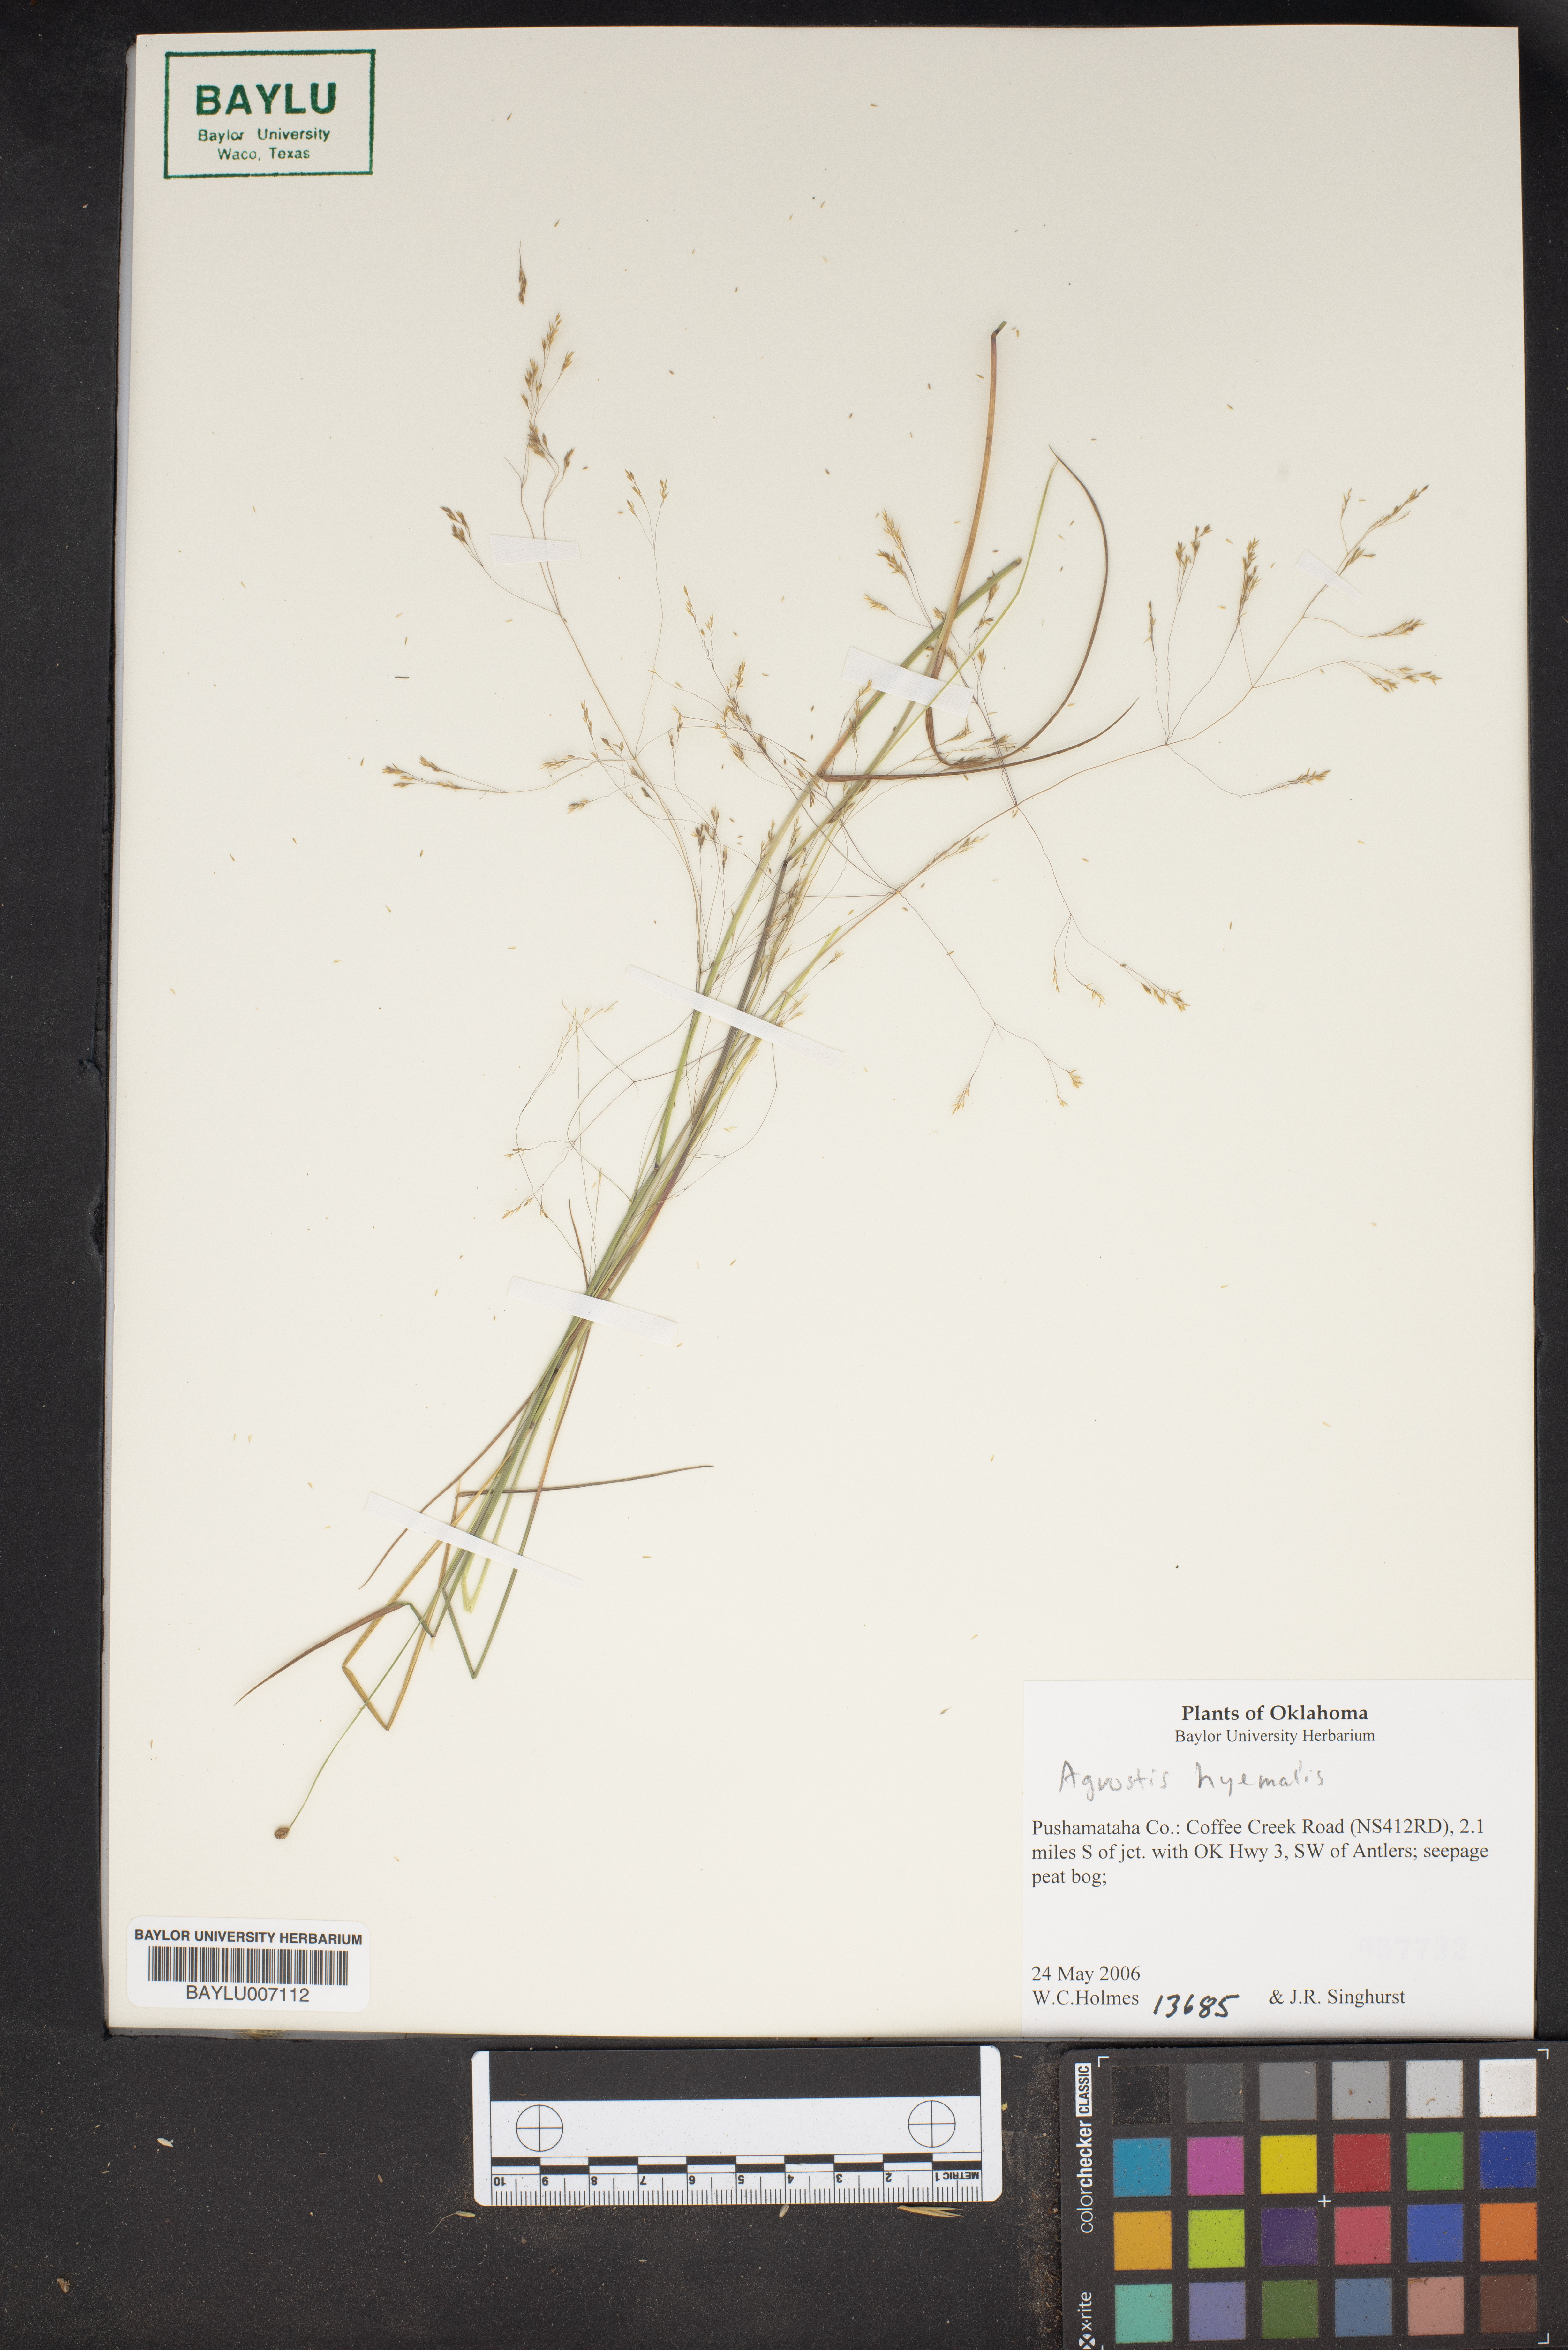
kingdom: Plantae
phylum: Tracheophyta
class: Liliopsida
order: Poales
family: Poaceae
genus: Agrostis
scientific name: Agrostis hyemalis
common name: Small bent
